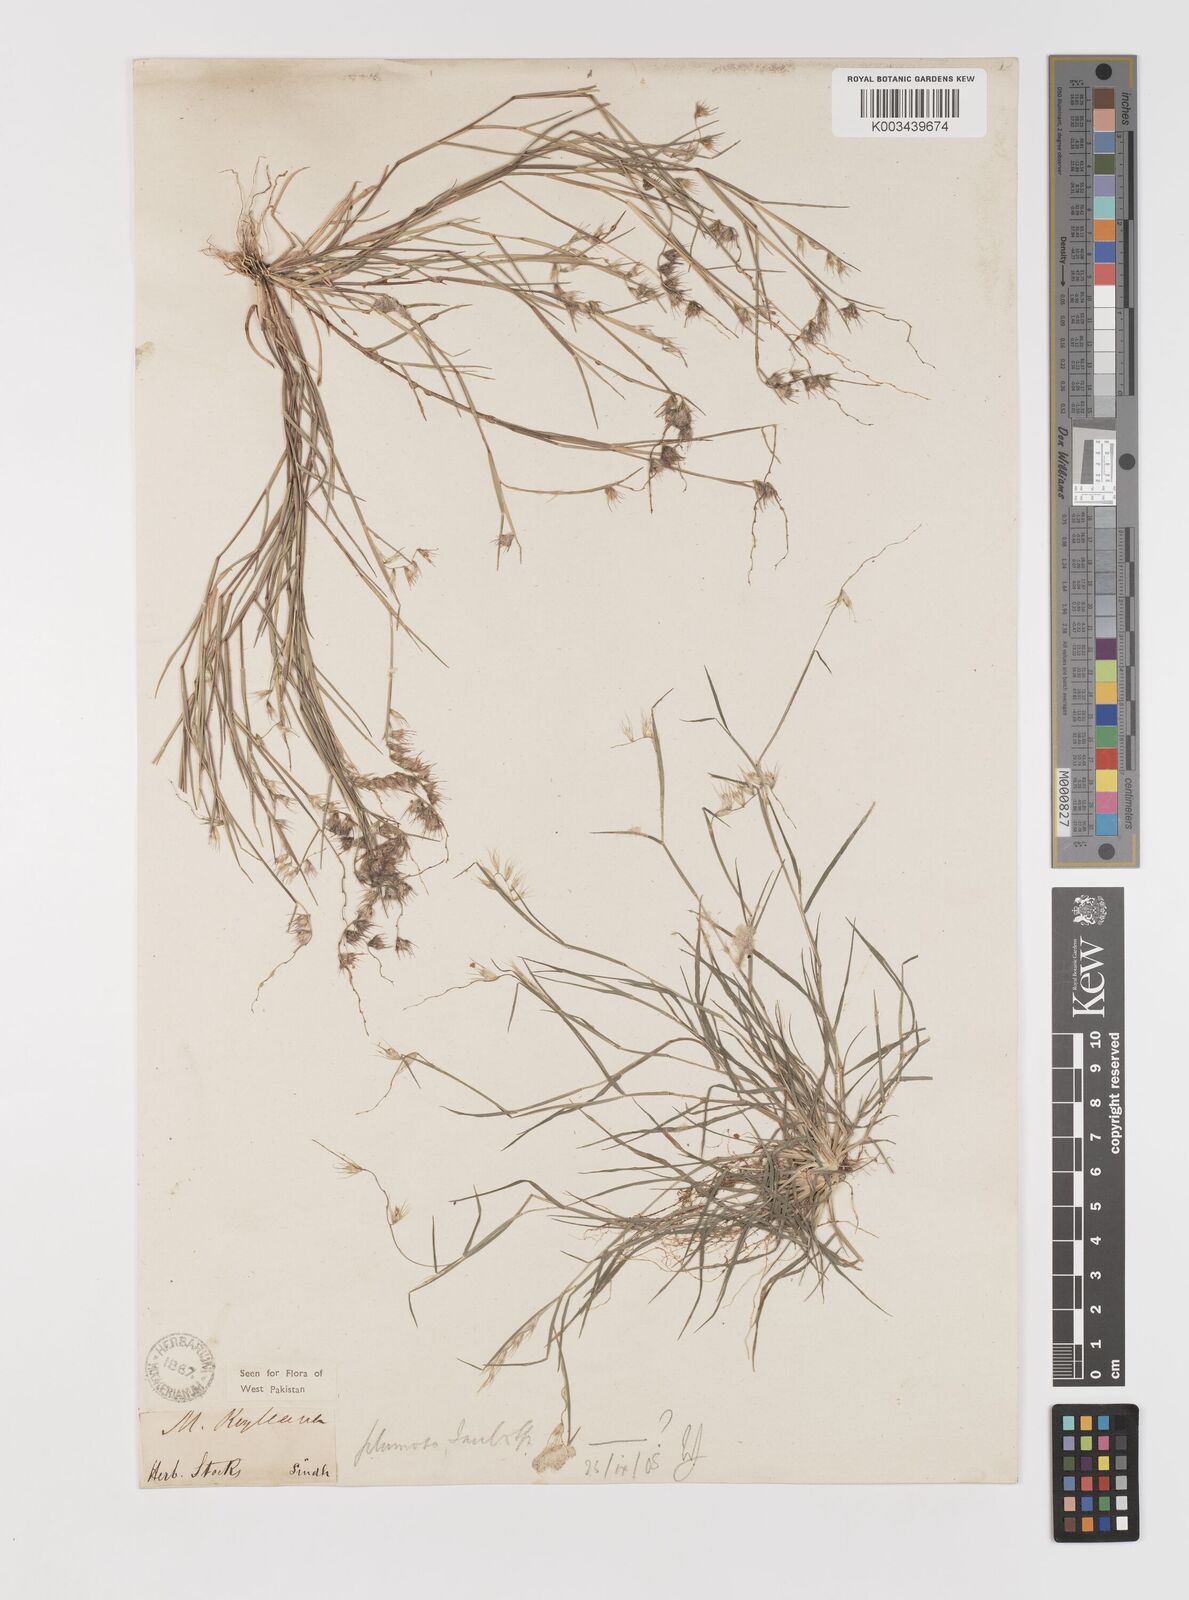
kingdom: Plantae
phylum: Tracheophyta
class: Liliopsida
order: Poales
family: Poaceae
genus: Melanocenchris
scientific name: Melanocenchris jacquemontii
